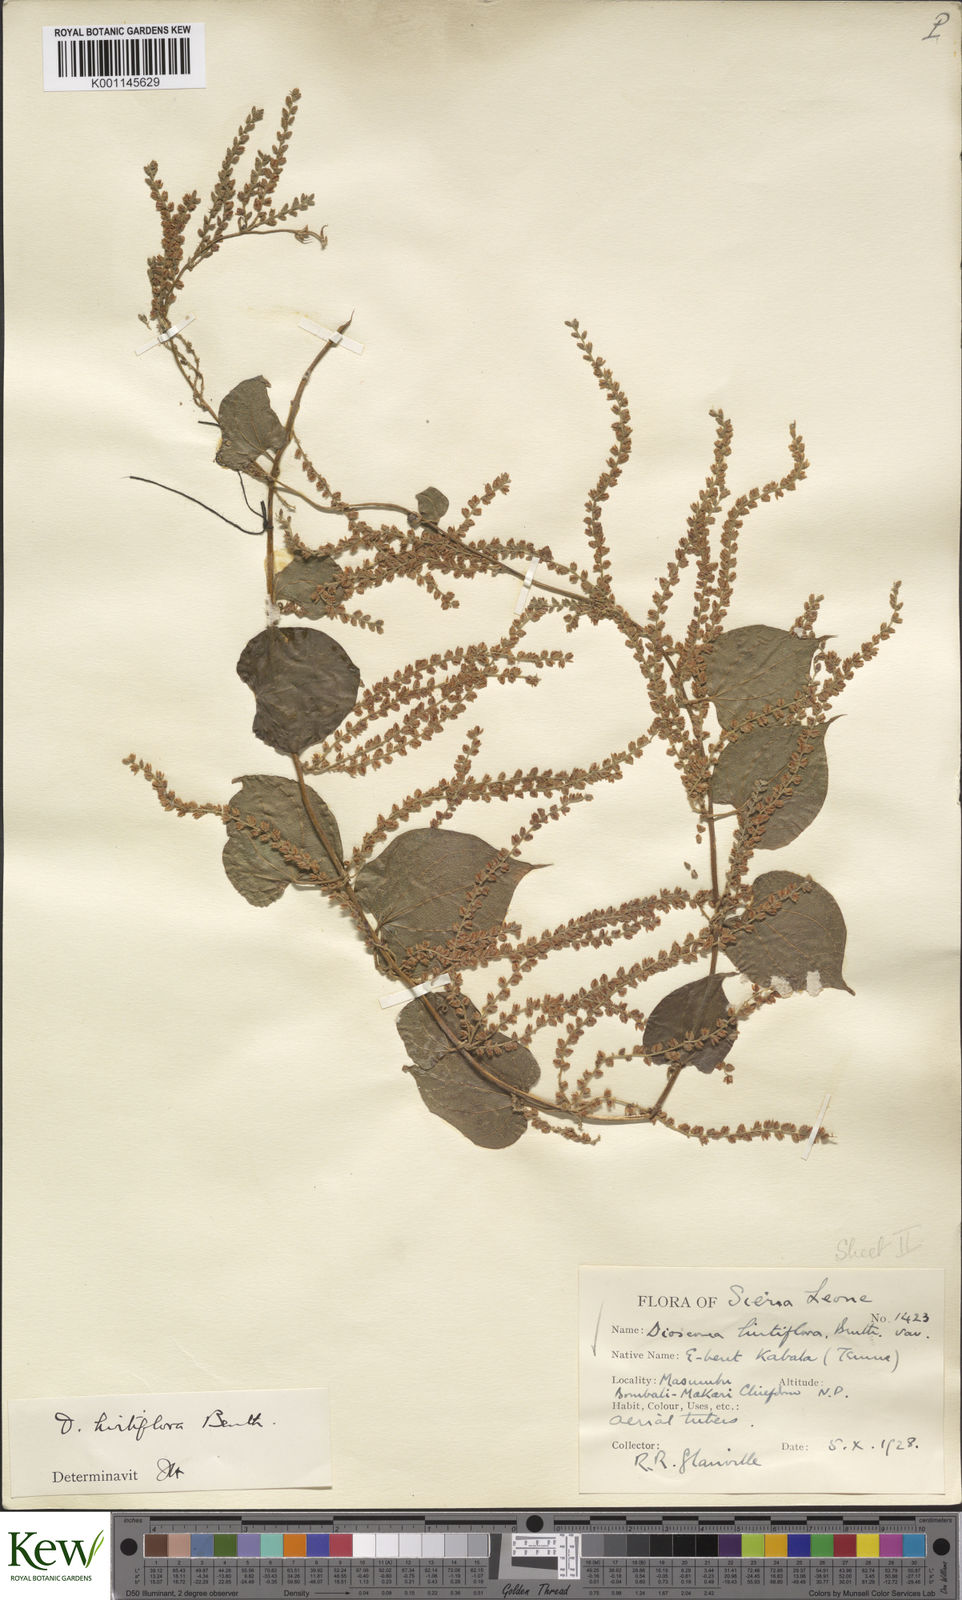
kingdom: Plantae
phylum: Tracheophyta
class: Liliopsida
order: Dioscoreales
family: Dioscoreaceae
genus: Dioscorea
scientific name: Dioscorea hirtiflora
